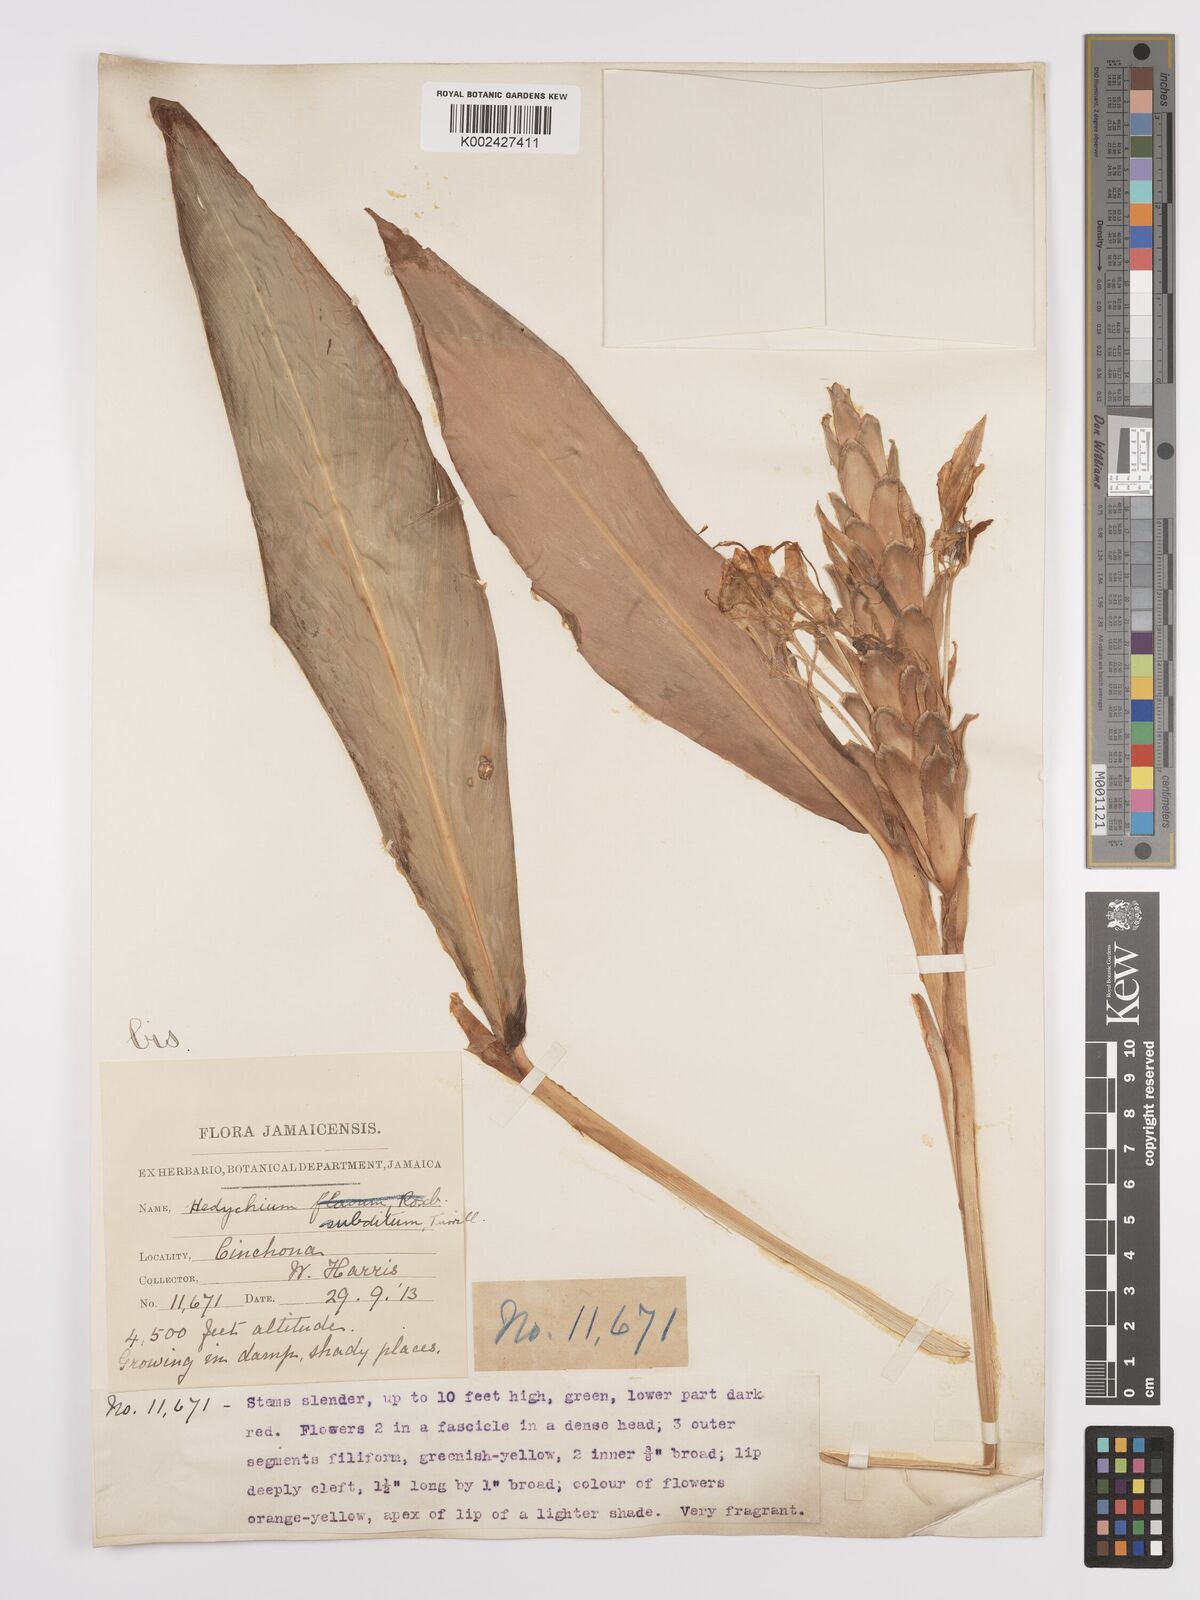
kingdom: Plantae
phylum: Tracheophyta
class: Liliopsida
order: Zingiberales
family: Zingiberaceae
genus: Hedychium
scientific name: Hedychium flavescens
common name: Yellow ginger
